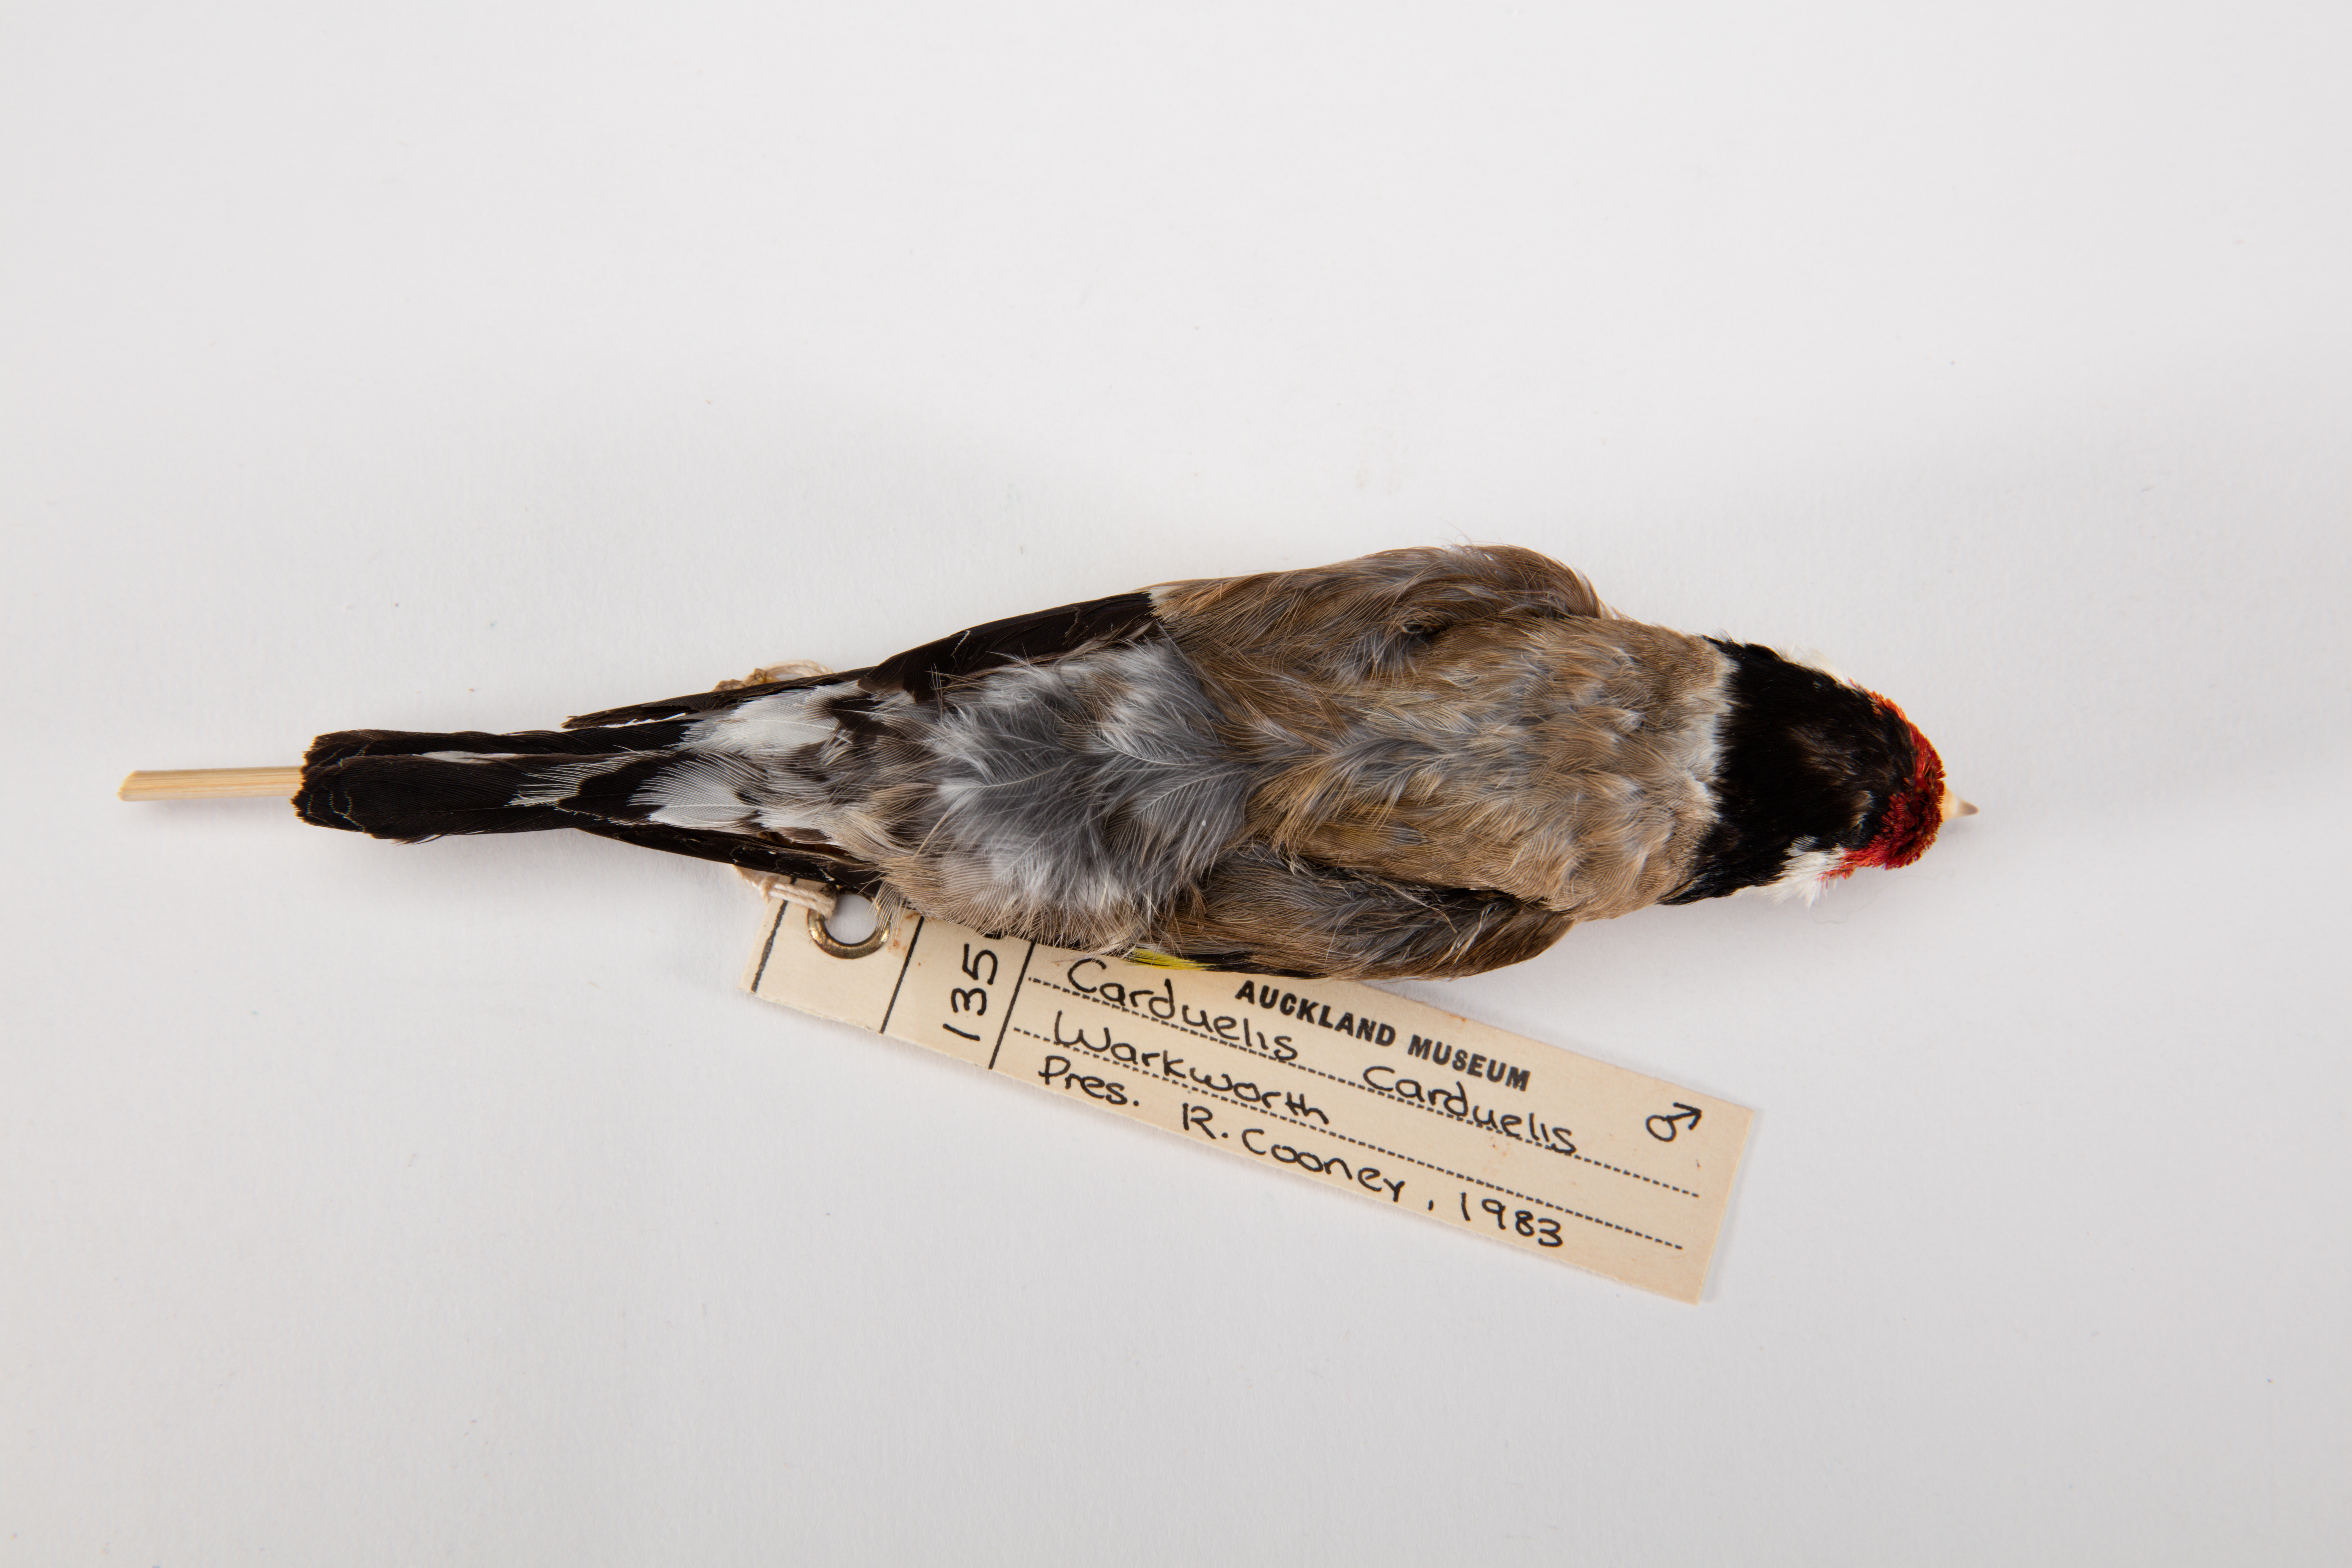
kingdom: Animalia
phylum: Chordata
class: Aves
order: Passeriformes
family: Fringillidae
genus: Carduelis
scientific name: Carduelis carduelis
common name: European goldfinch
